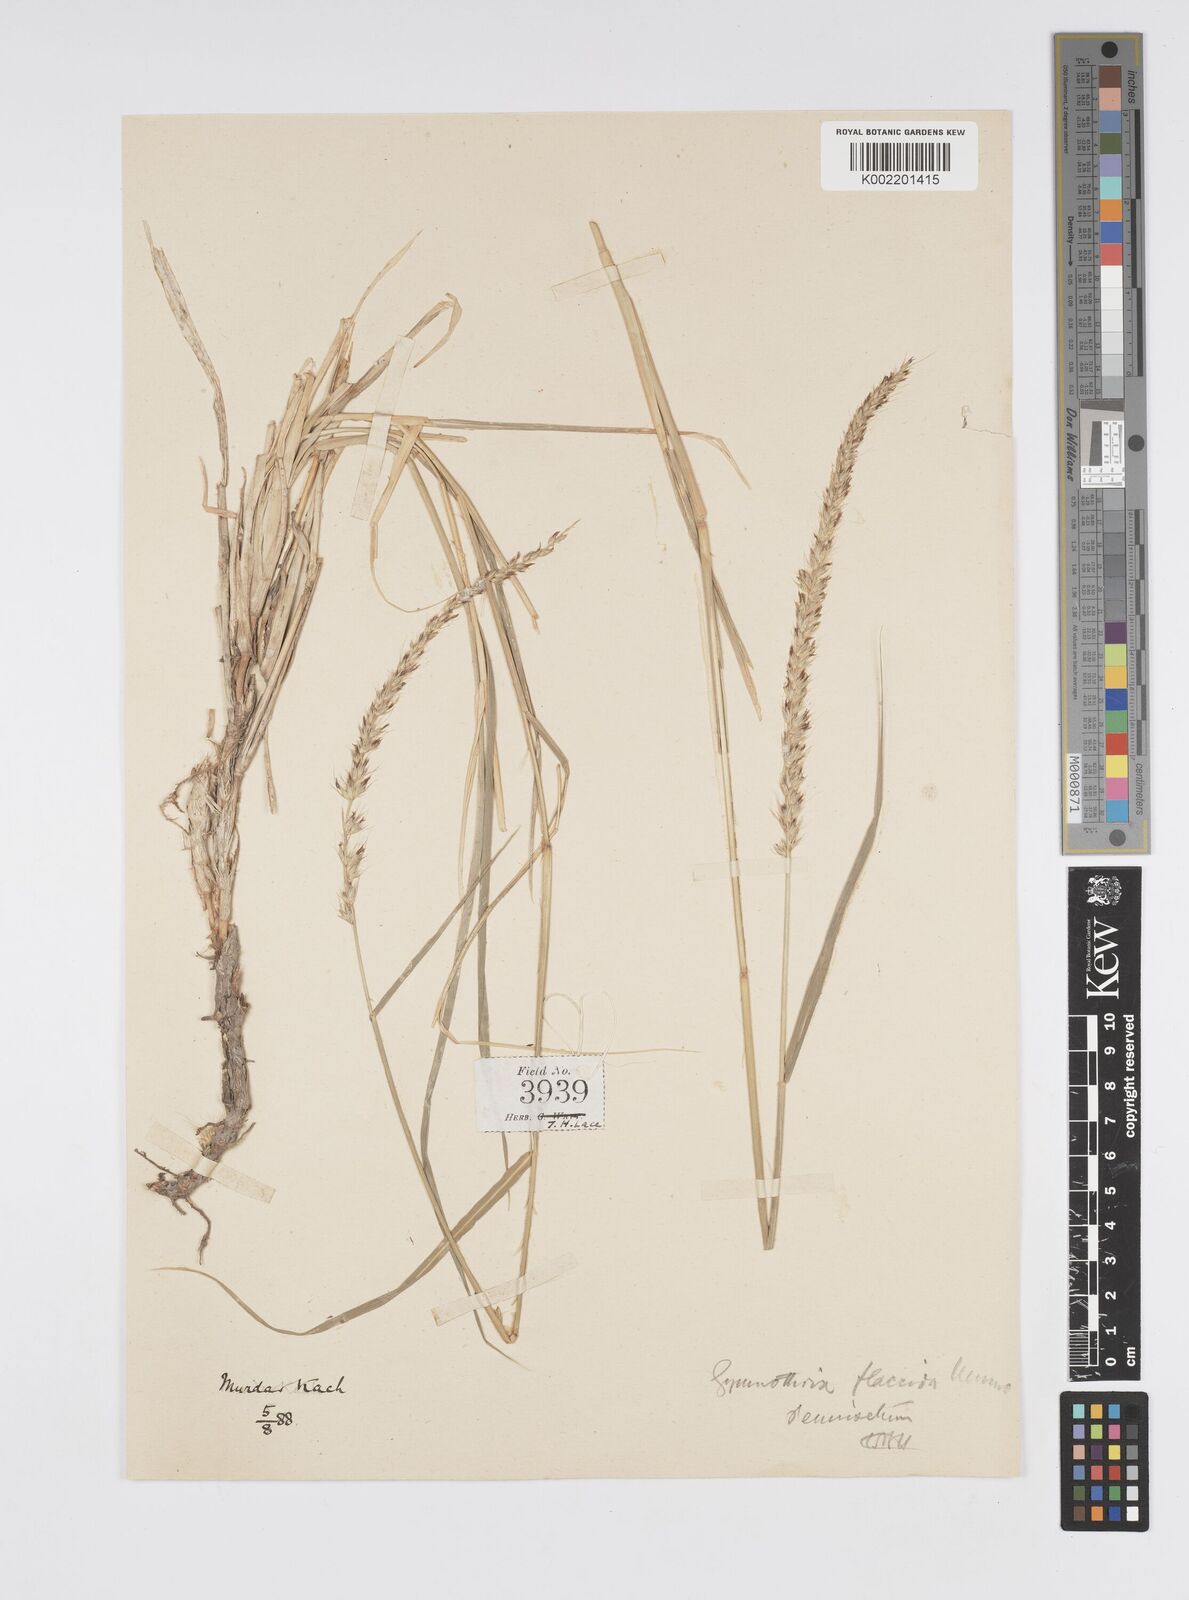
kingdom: Plantae
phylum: Tracheophyta
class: Liliopsida
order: Poales
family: Poaceae
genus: Cenchrus
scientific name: Cenchrus flaccidus
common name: Flaccid grass
